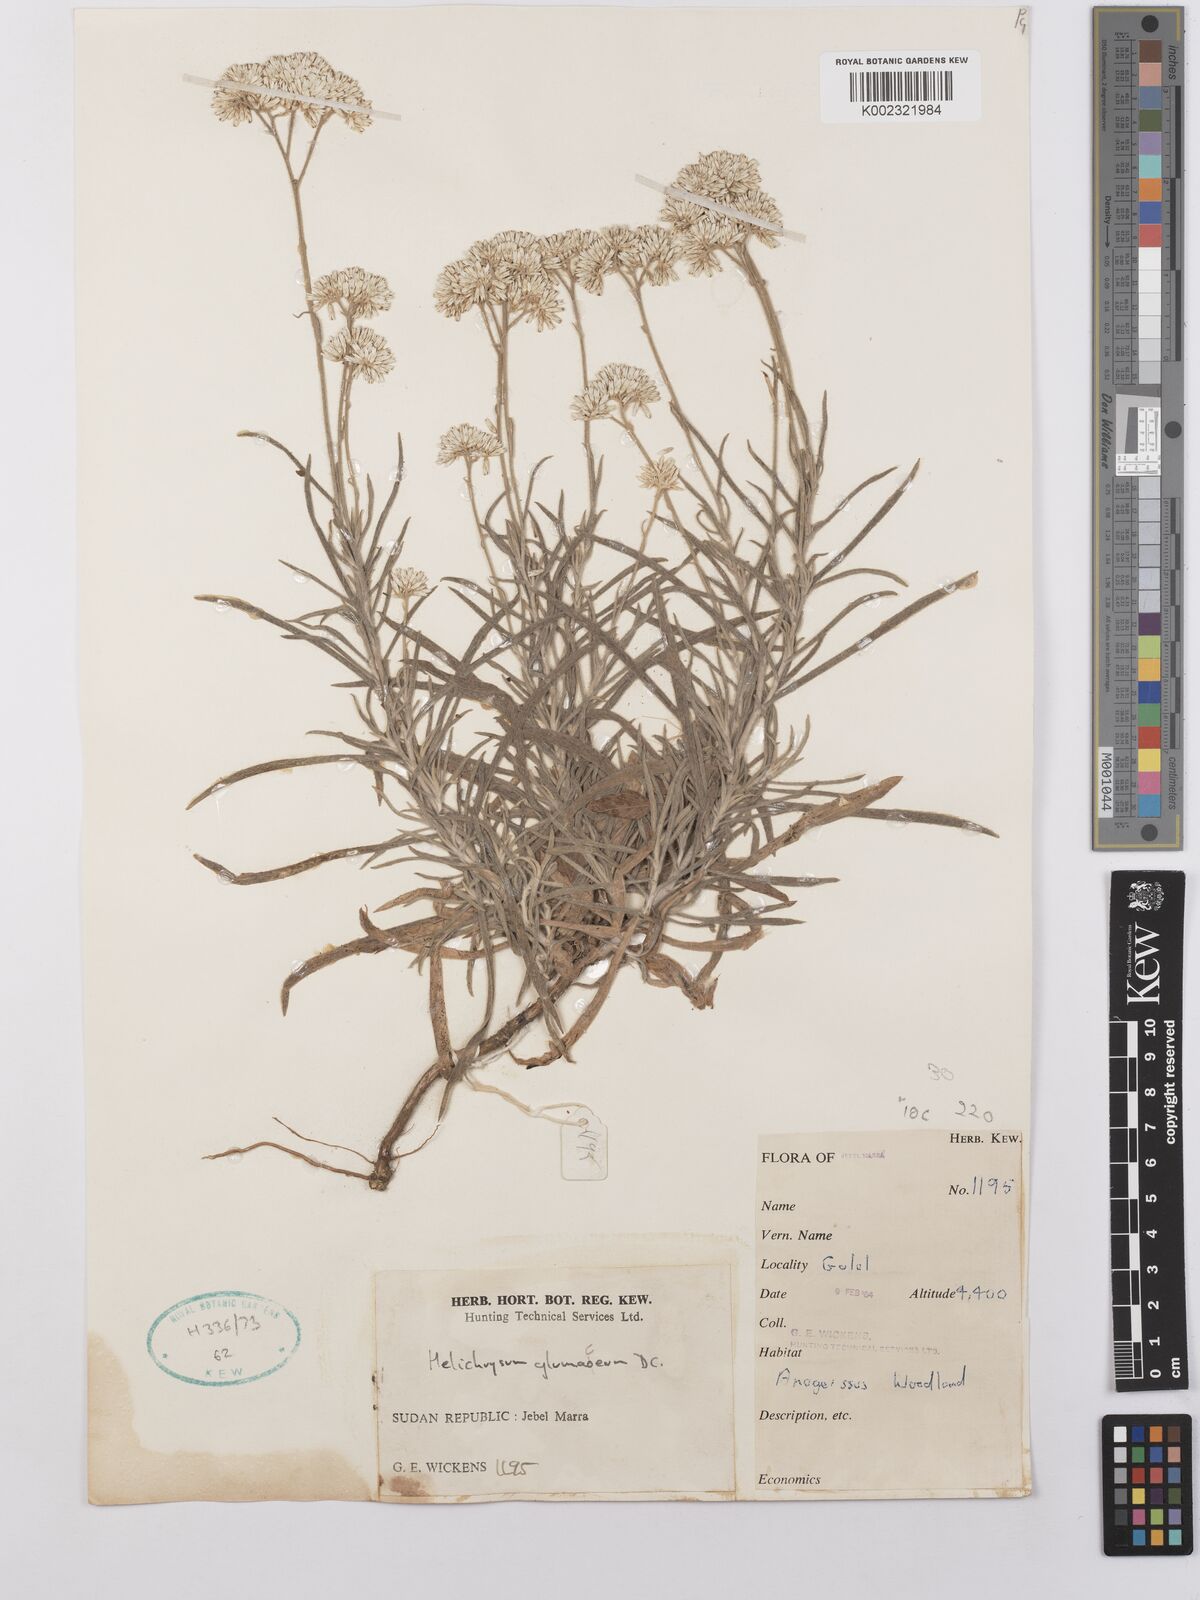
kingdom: Plantae
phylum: Tracheophyta
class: Magnoliopsida
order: Asterales
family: Asteraceae
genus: Helichrysum
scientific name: Helichrysum glumaceum
